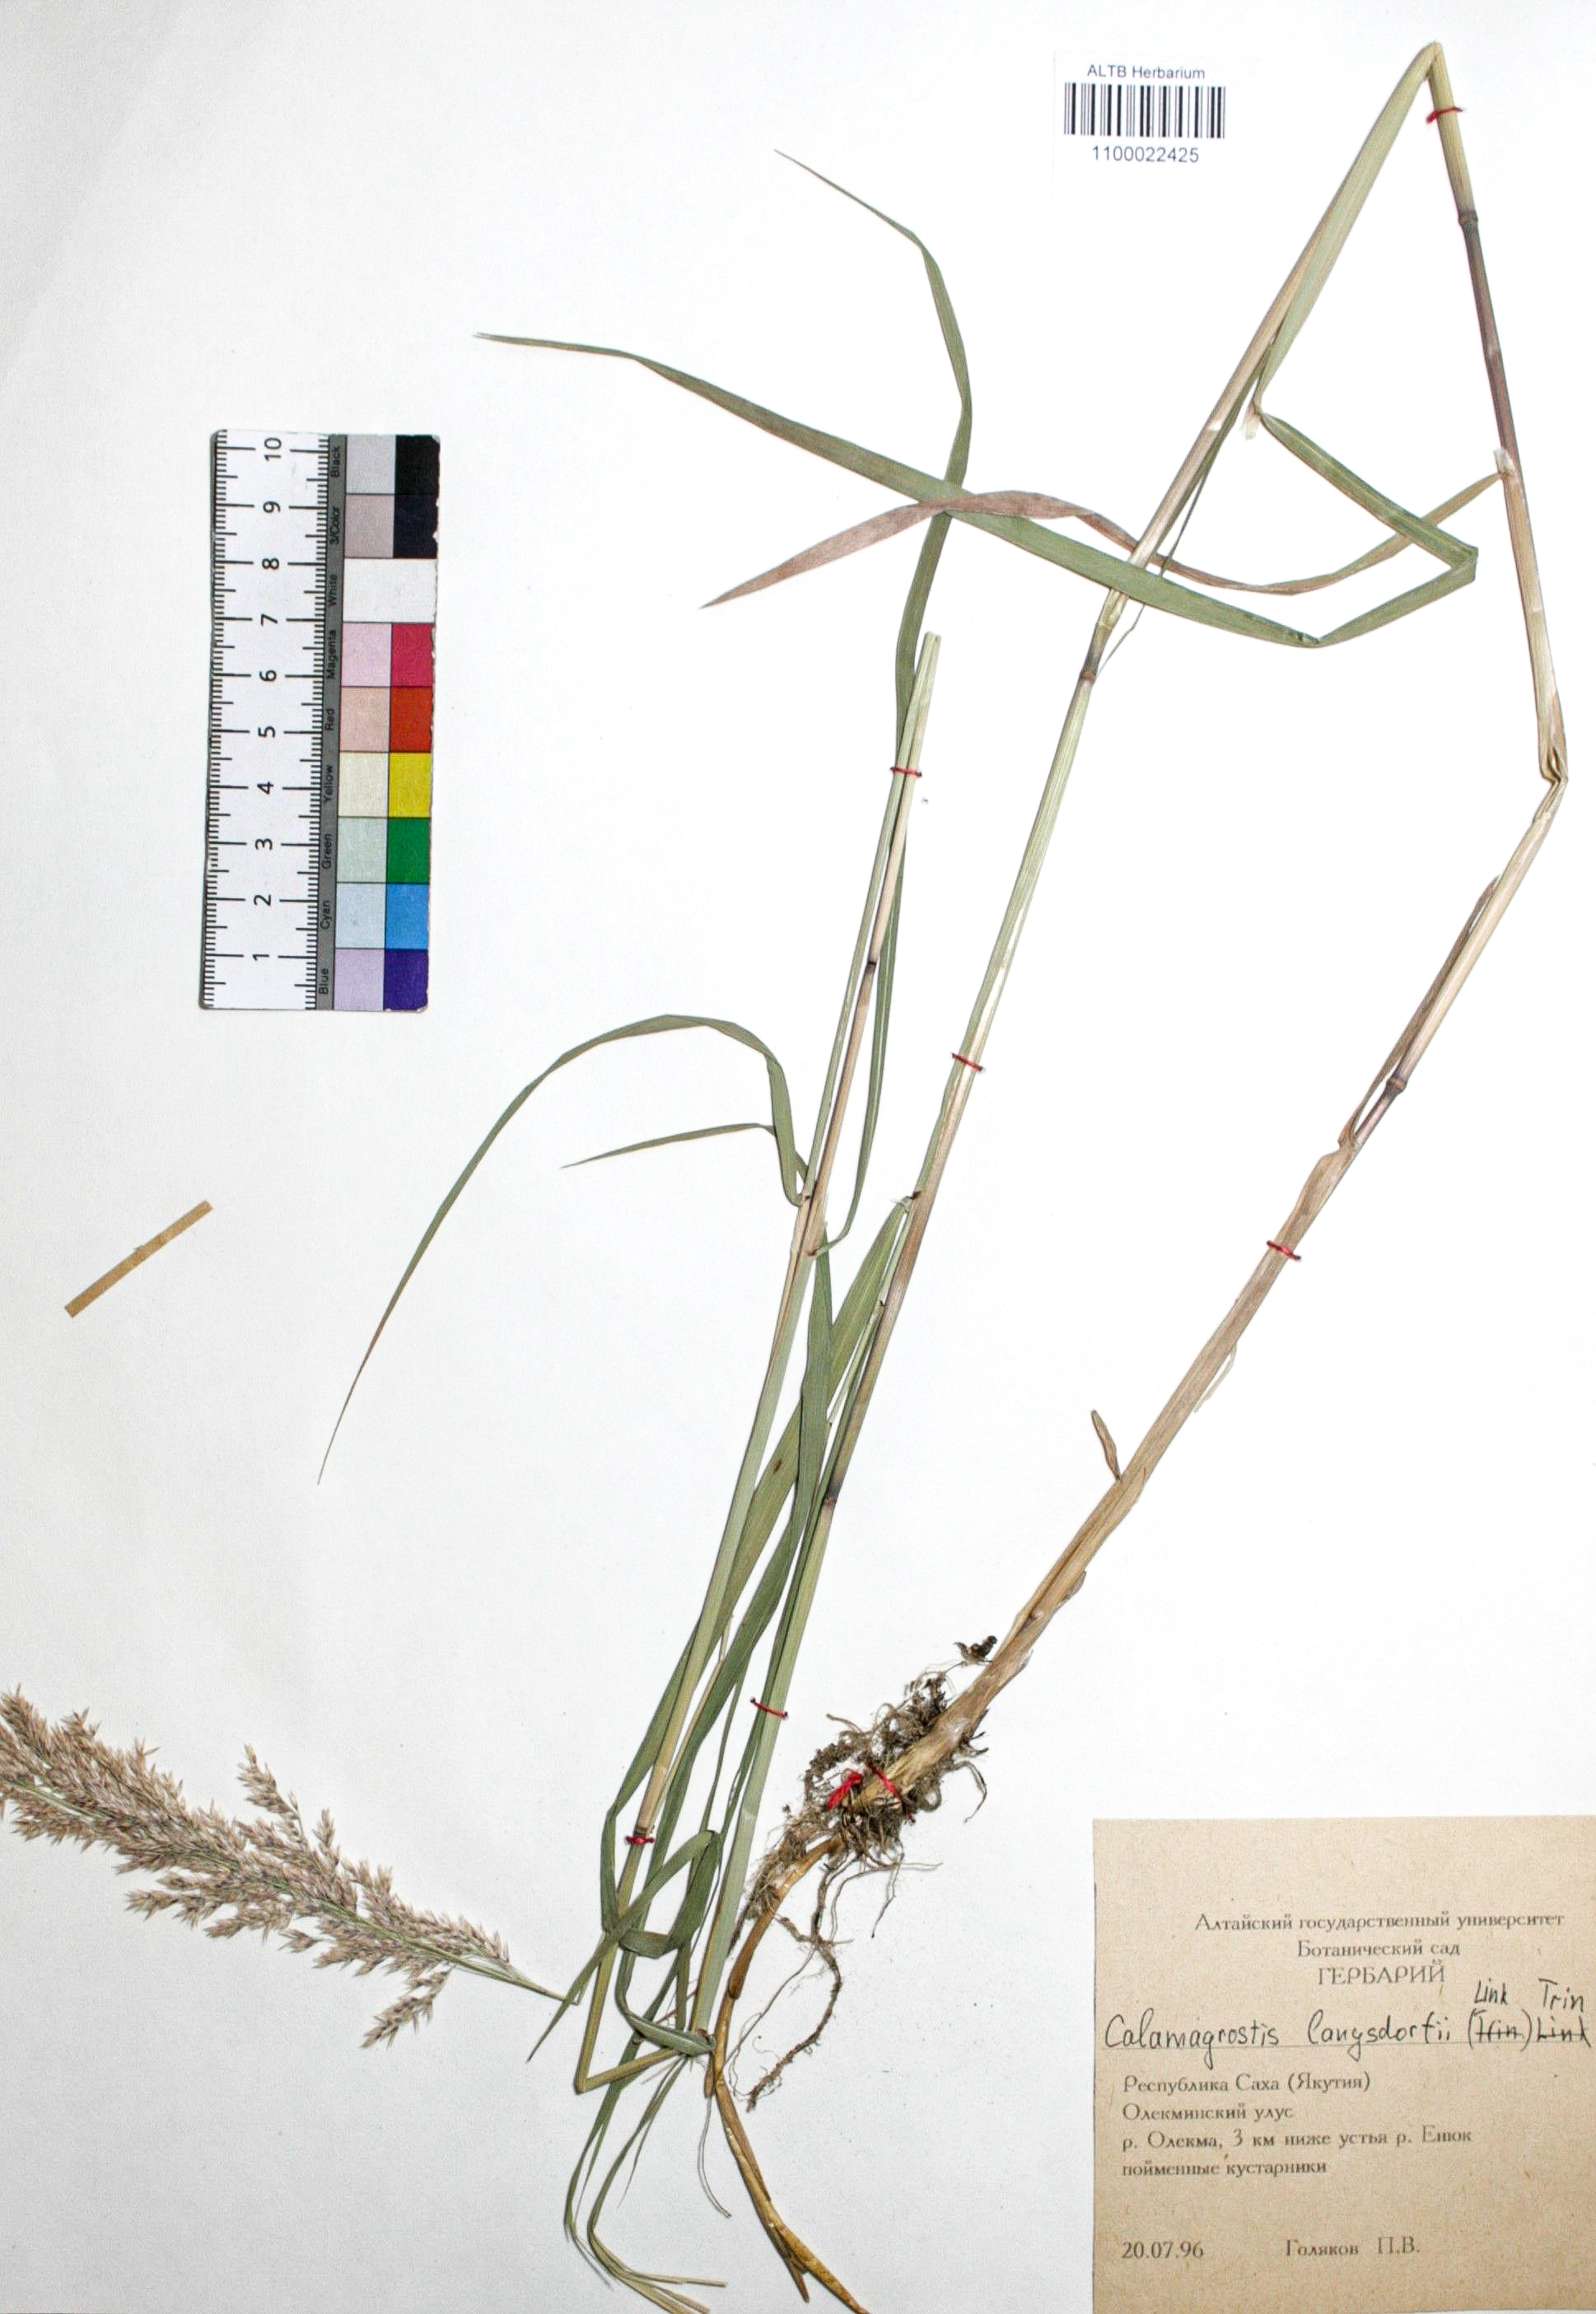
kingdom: Plantae
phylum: Tracheophyta
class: Liliopsida
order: Poales
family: Poaceae
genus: Calamagrostis
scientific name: Calamagrostis purpurea
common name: Scandinavian small-reed
